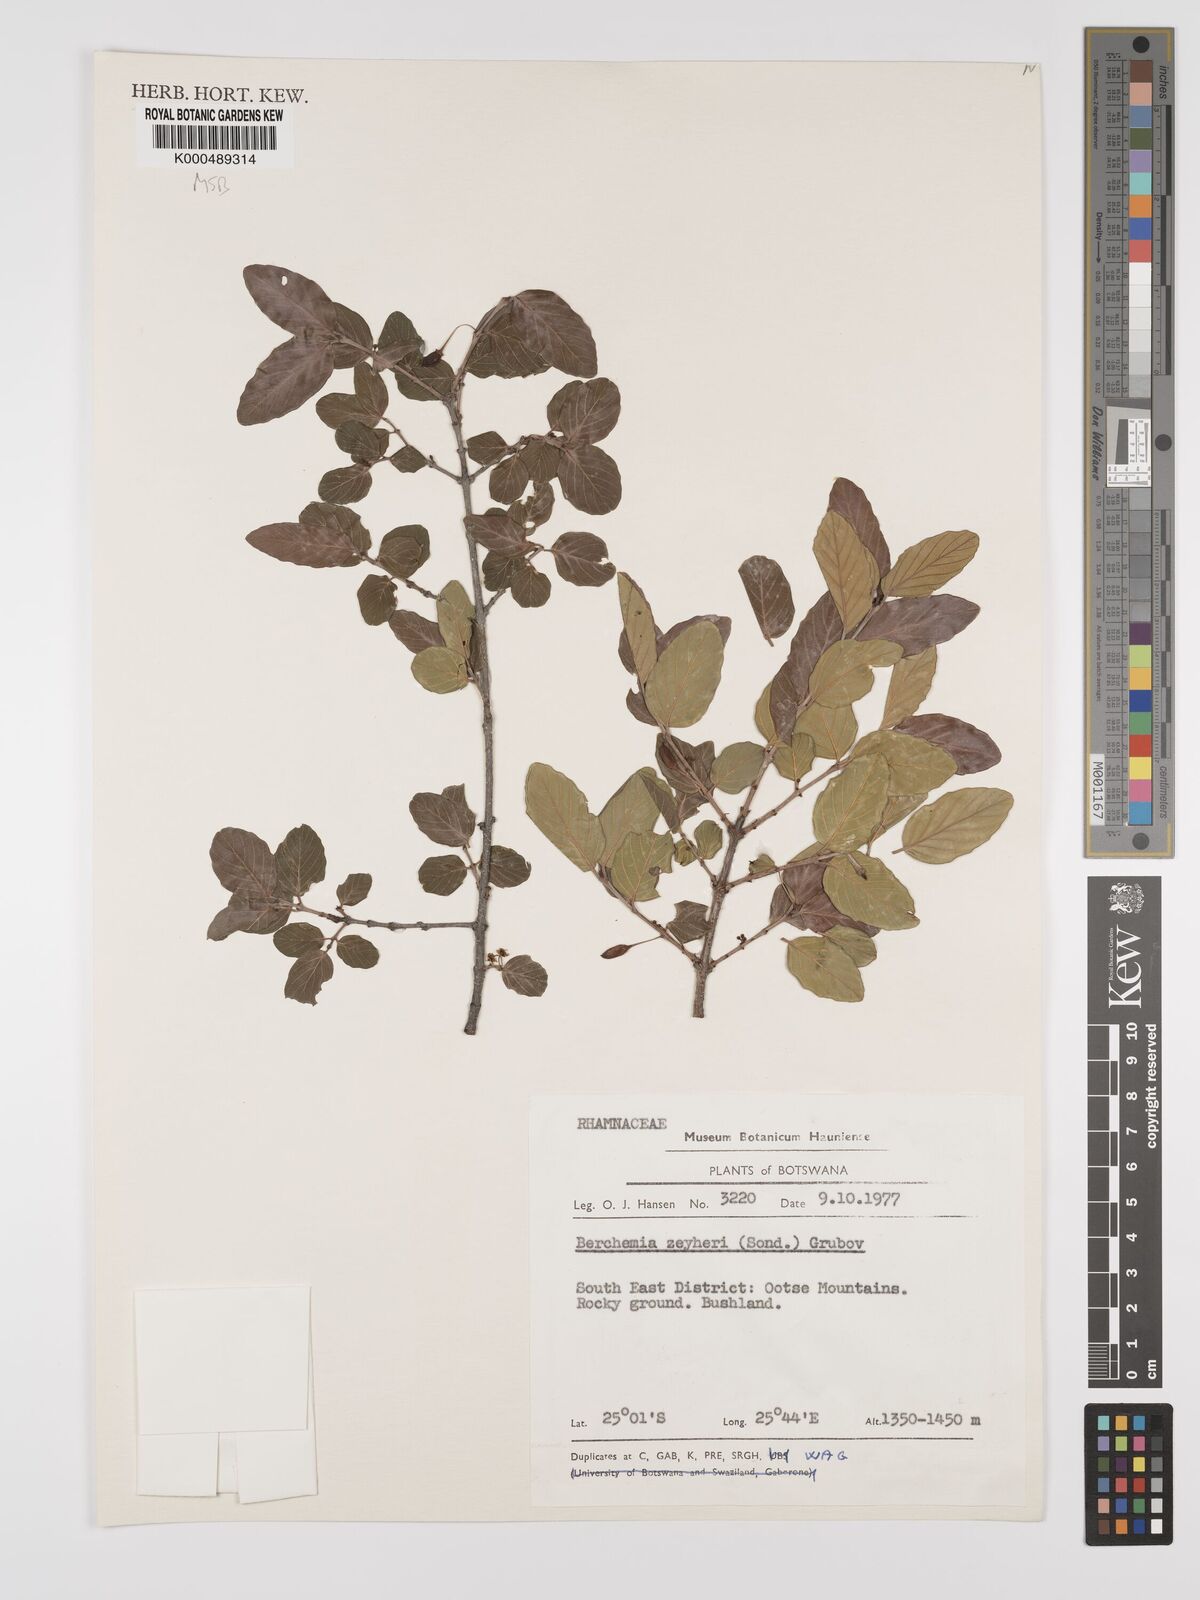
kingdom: Plantae
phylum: Tracheophyta
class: Magnoliopsida
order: Rosales
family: Rhamnaceae
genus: Phyllogeiton
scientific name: Phyllogeiton zeyheri
